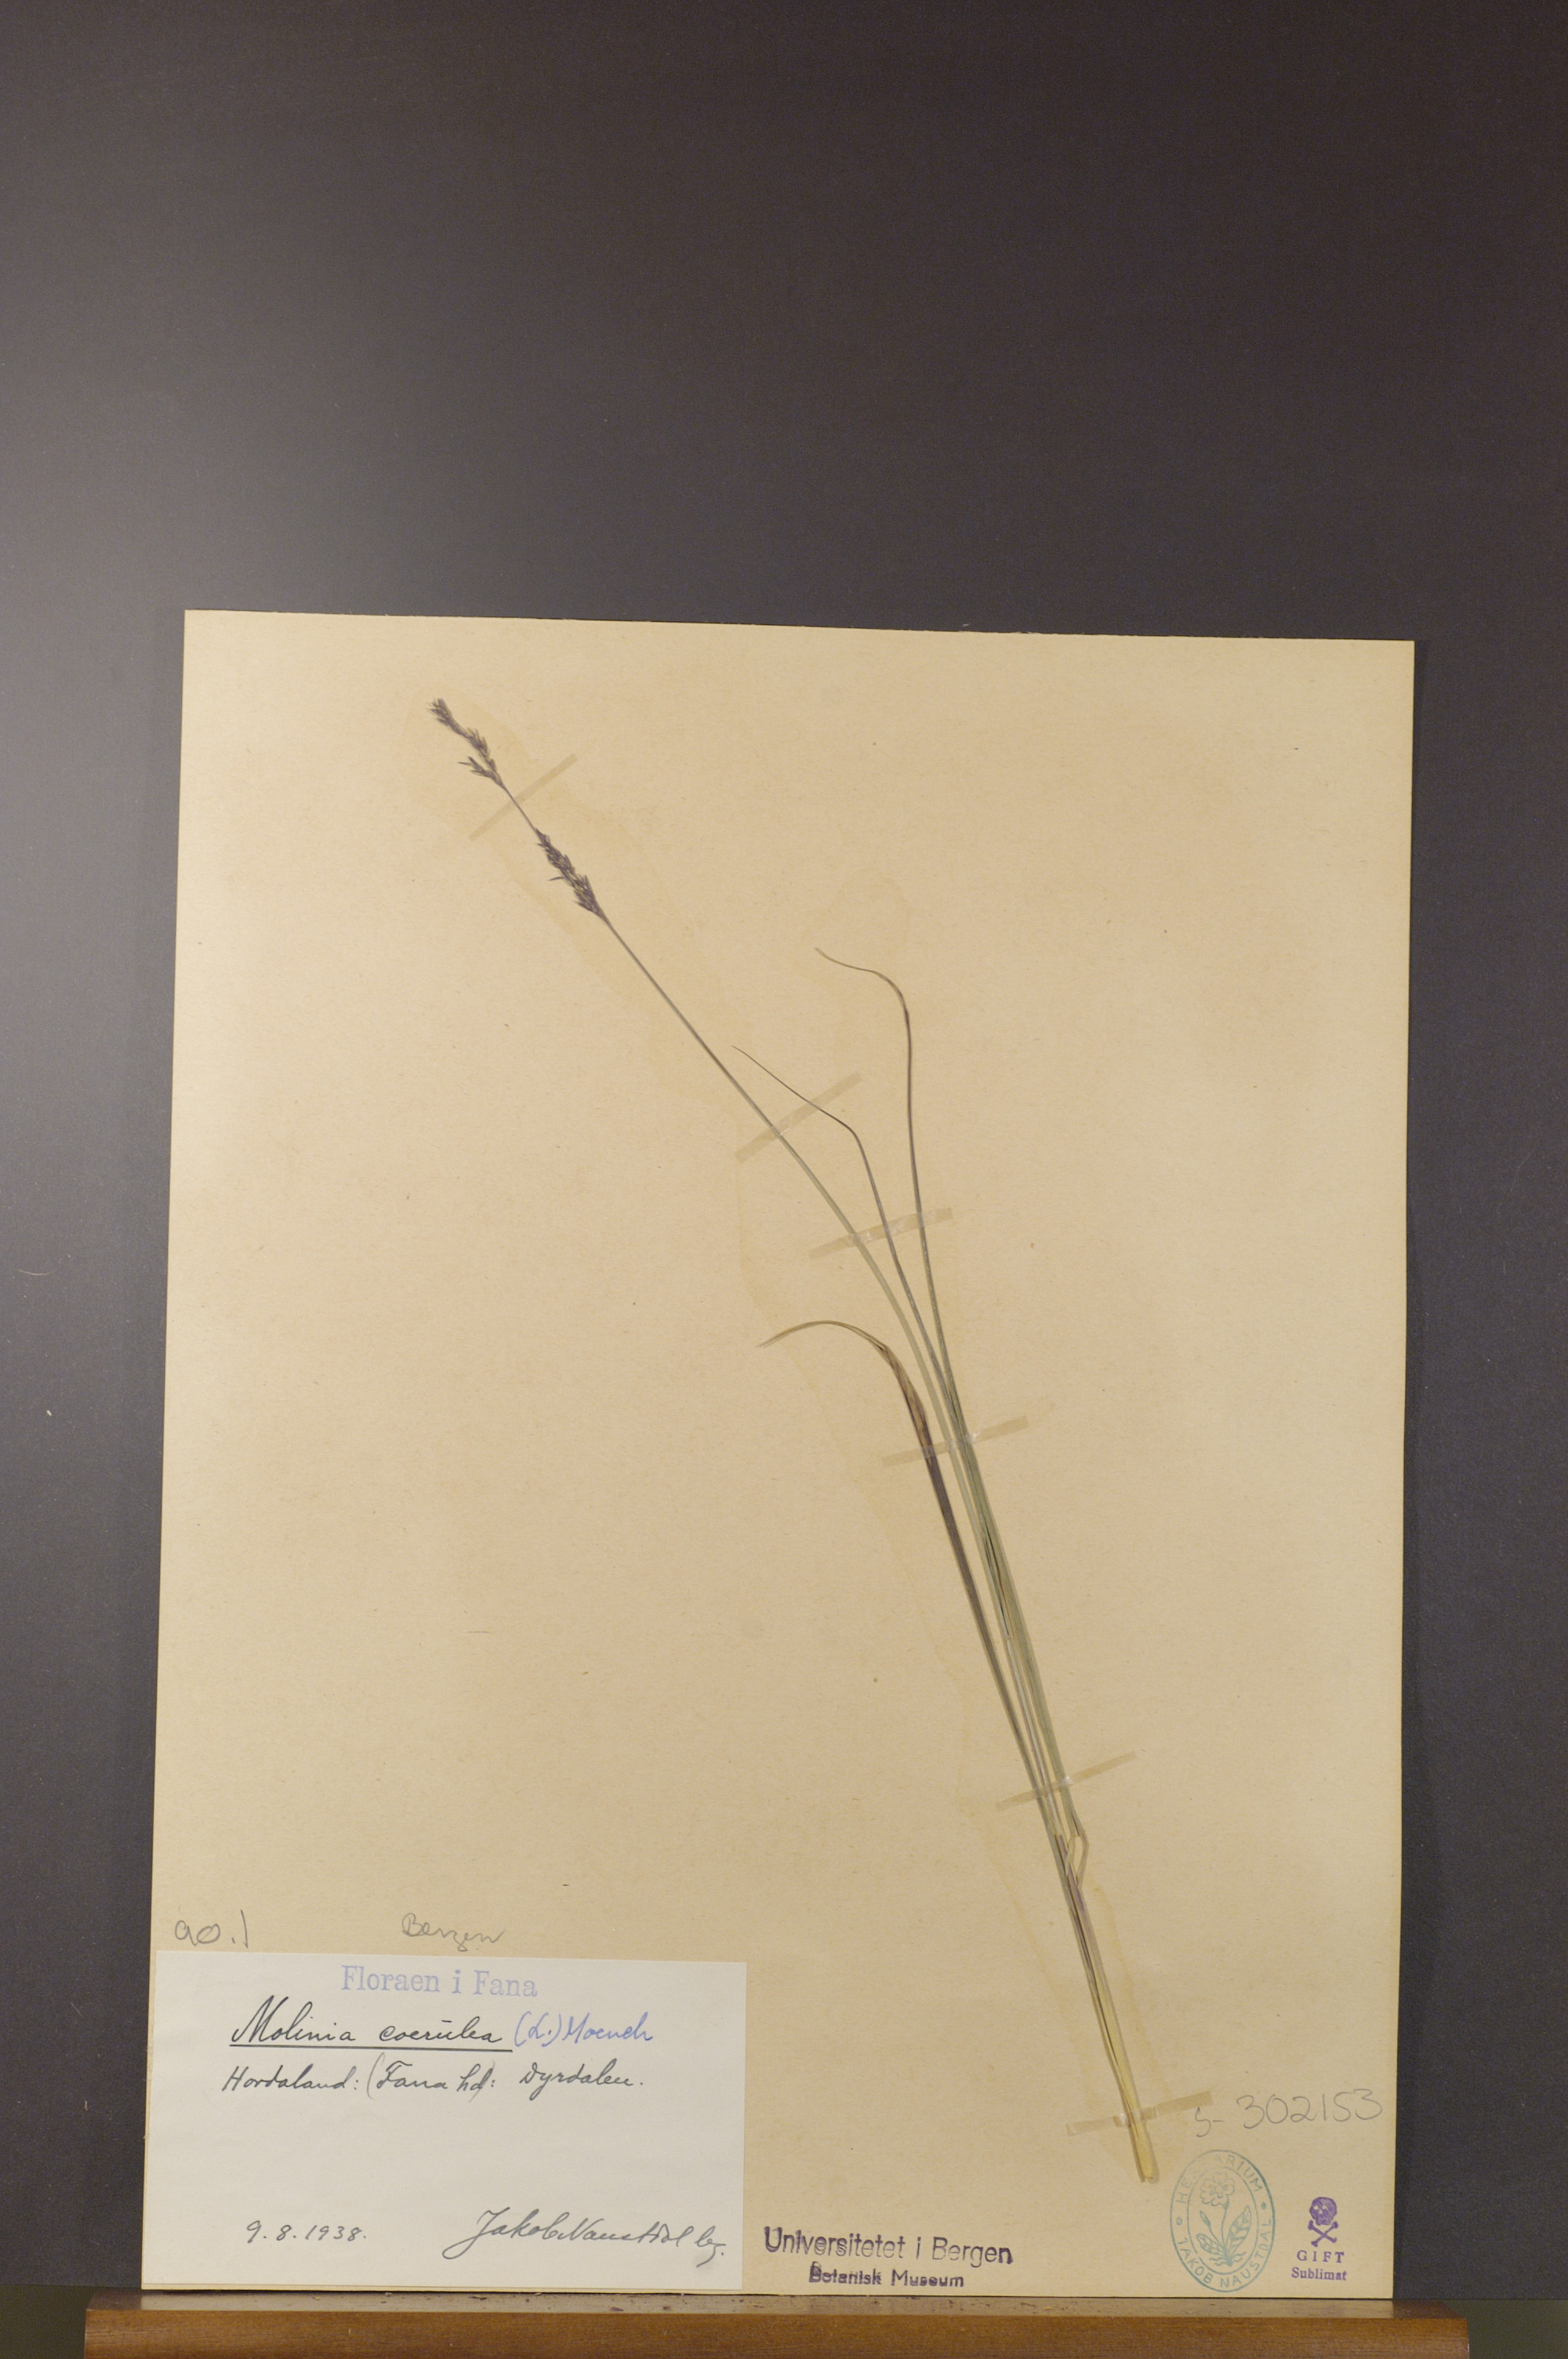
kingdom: Plantae
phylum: Tracheophyta
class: Liliopsida
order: Poales
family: Poaceae
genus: Molinia
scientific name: Molinia caerulea
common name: Purple moor-grass
